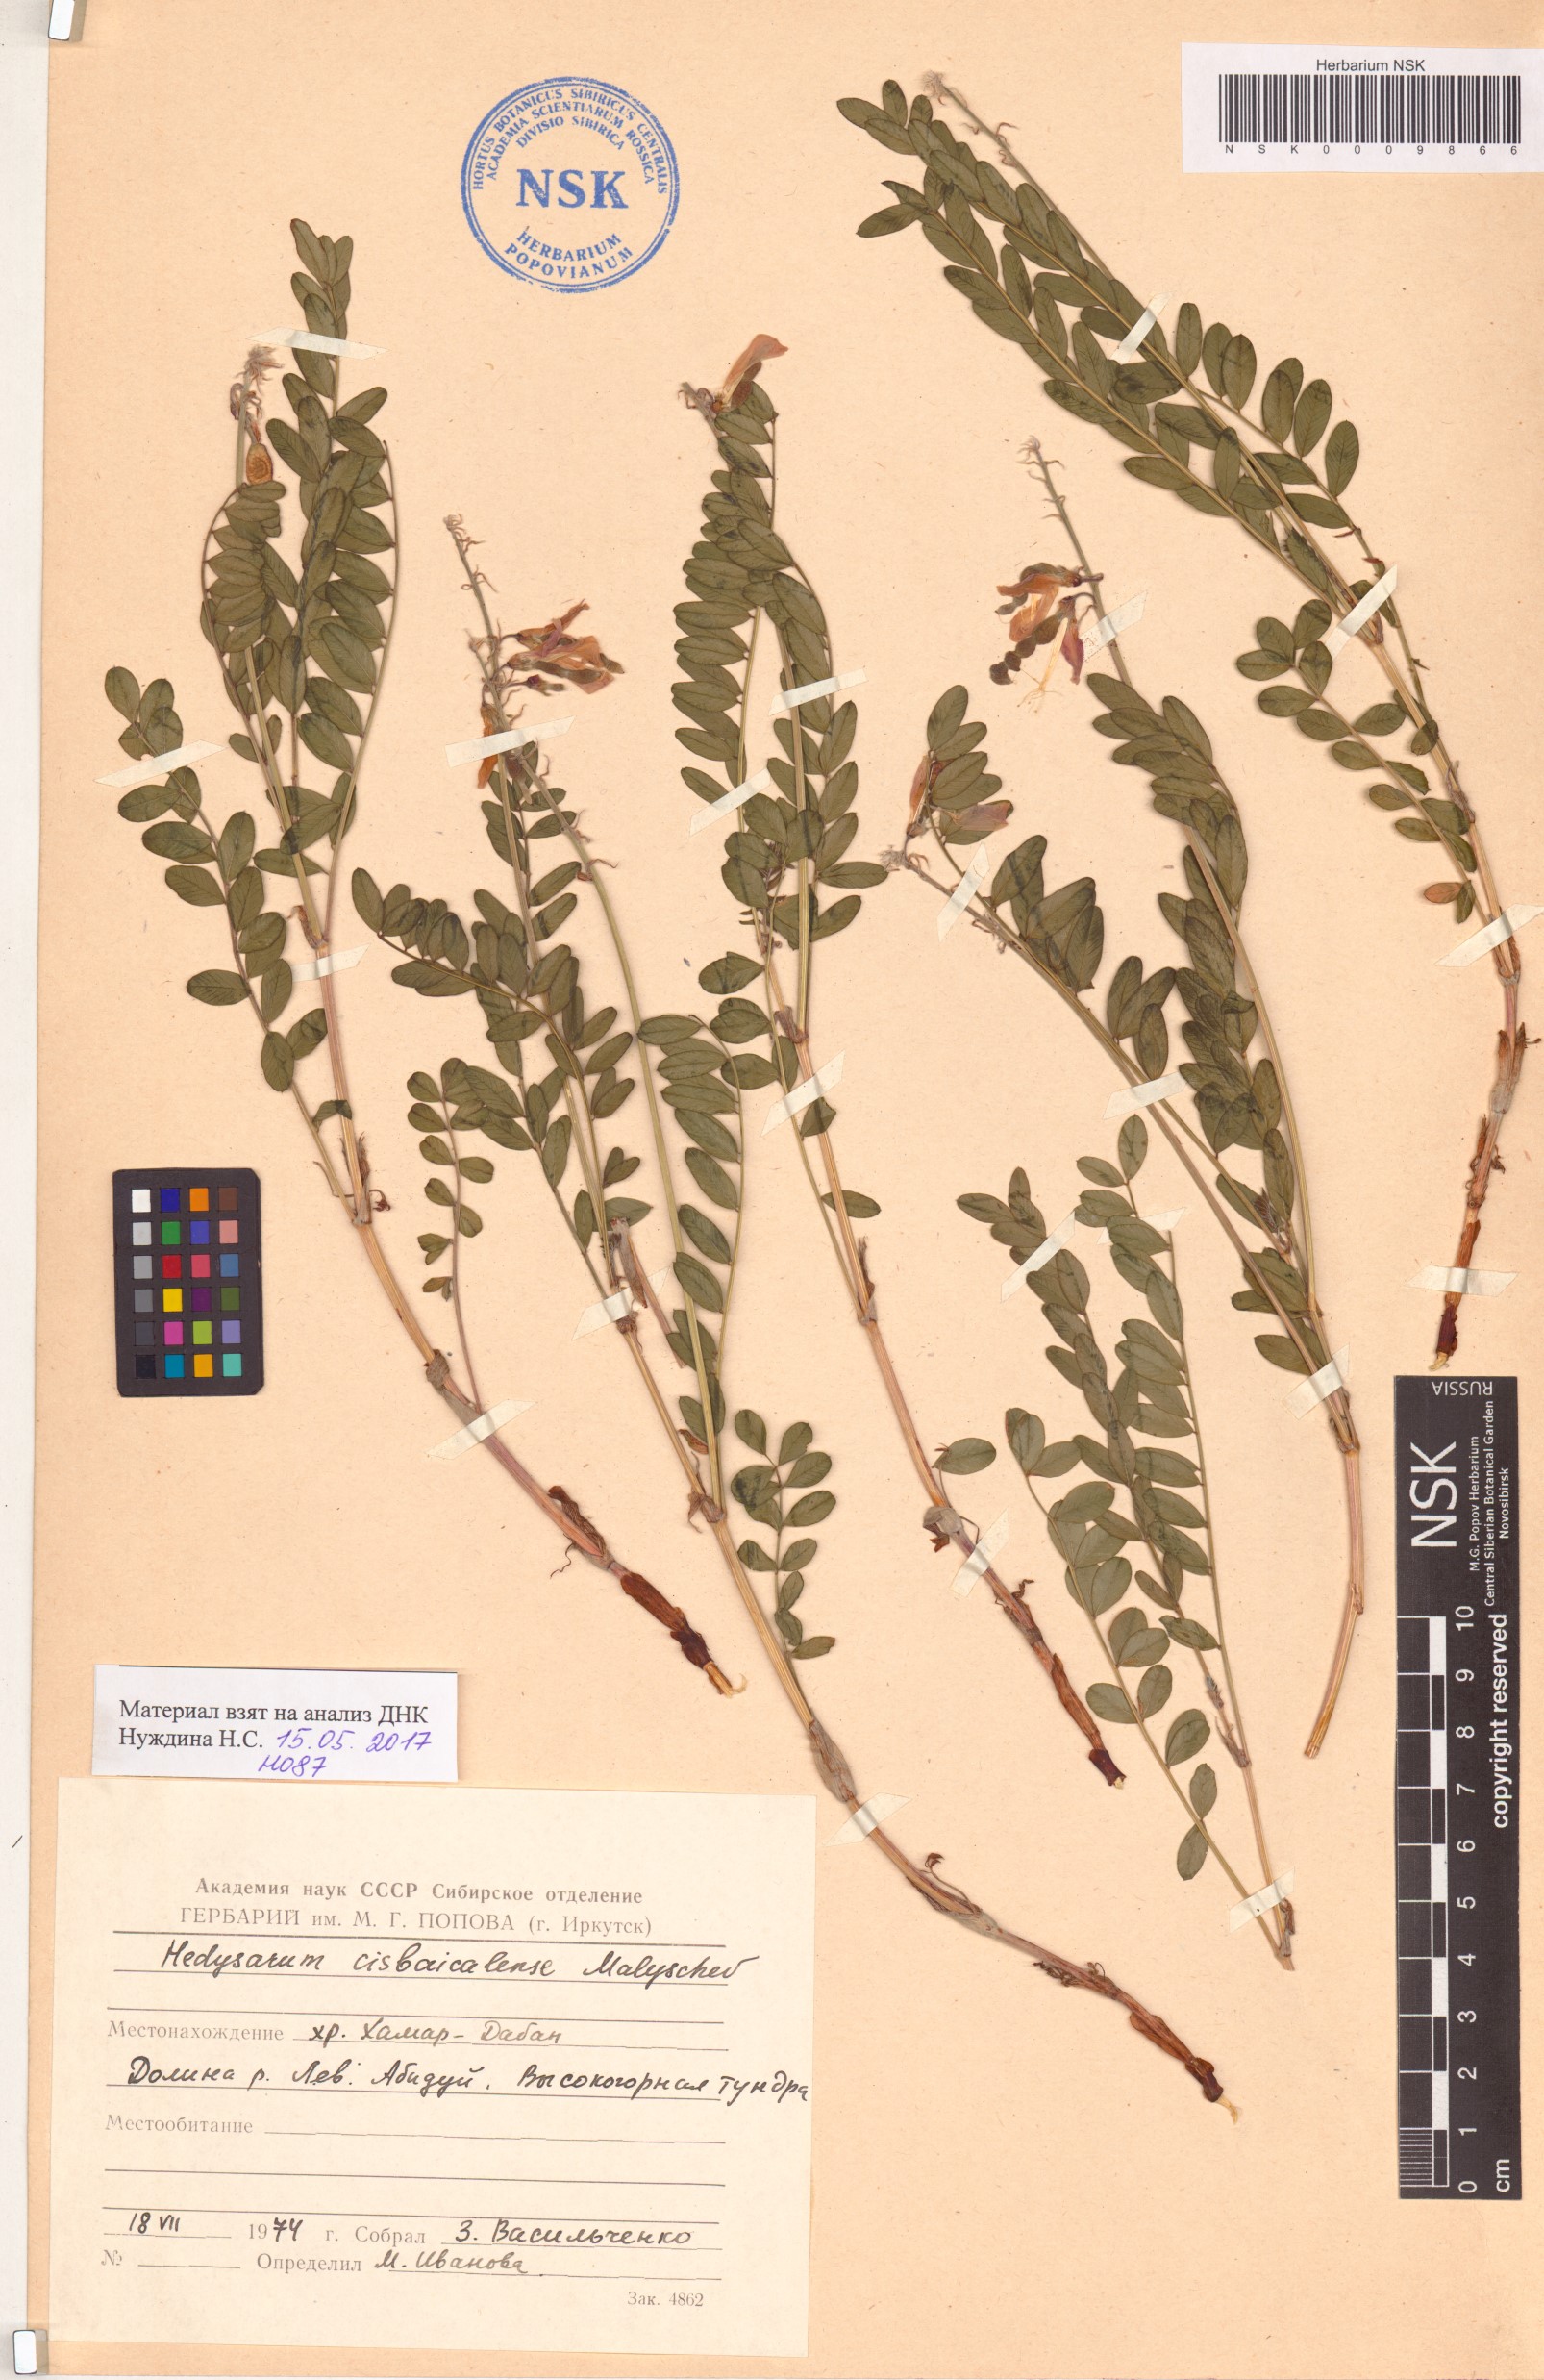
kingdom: Plantae
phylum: Tracheophyta
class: Magnoliopsida
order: Fabales
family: Fabaceae
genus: Hedysarum
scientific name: Hedysarum cisbaicalense
